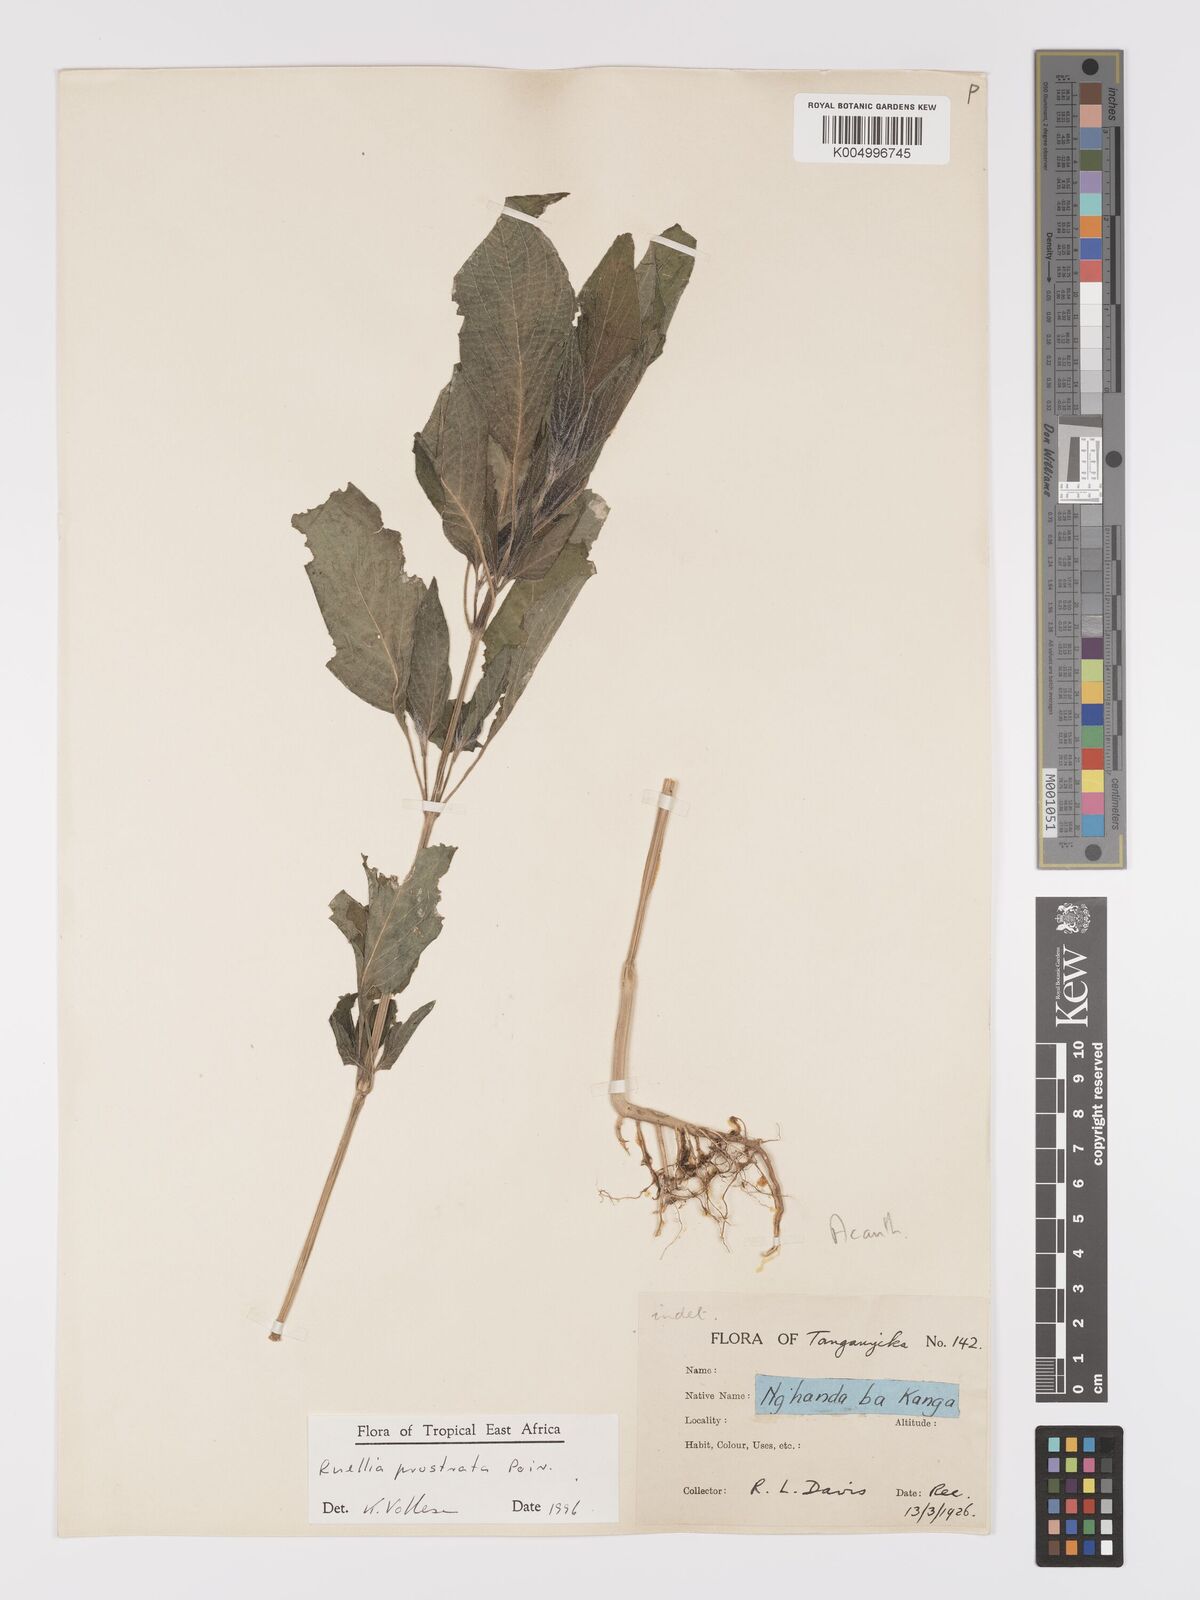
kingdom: Plantae
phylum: Tracheophyta
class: Magnoliopsida
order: Lamiales
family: Acanthaceae
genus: Ruellia
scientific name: Ruellia
